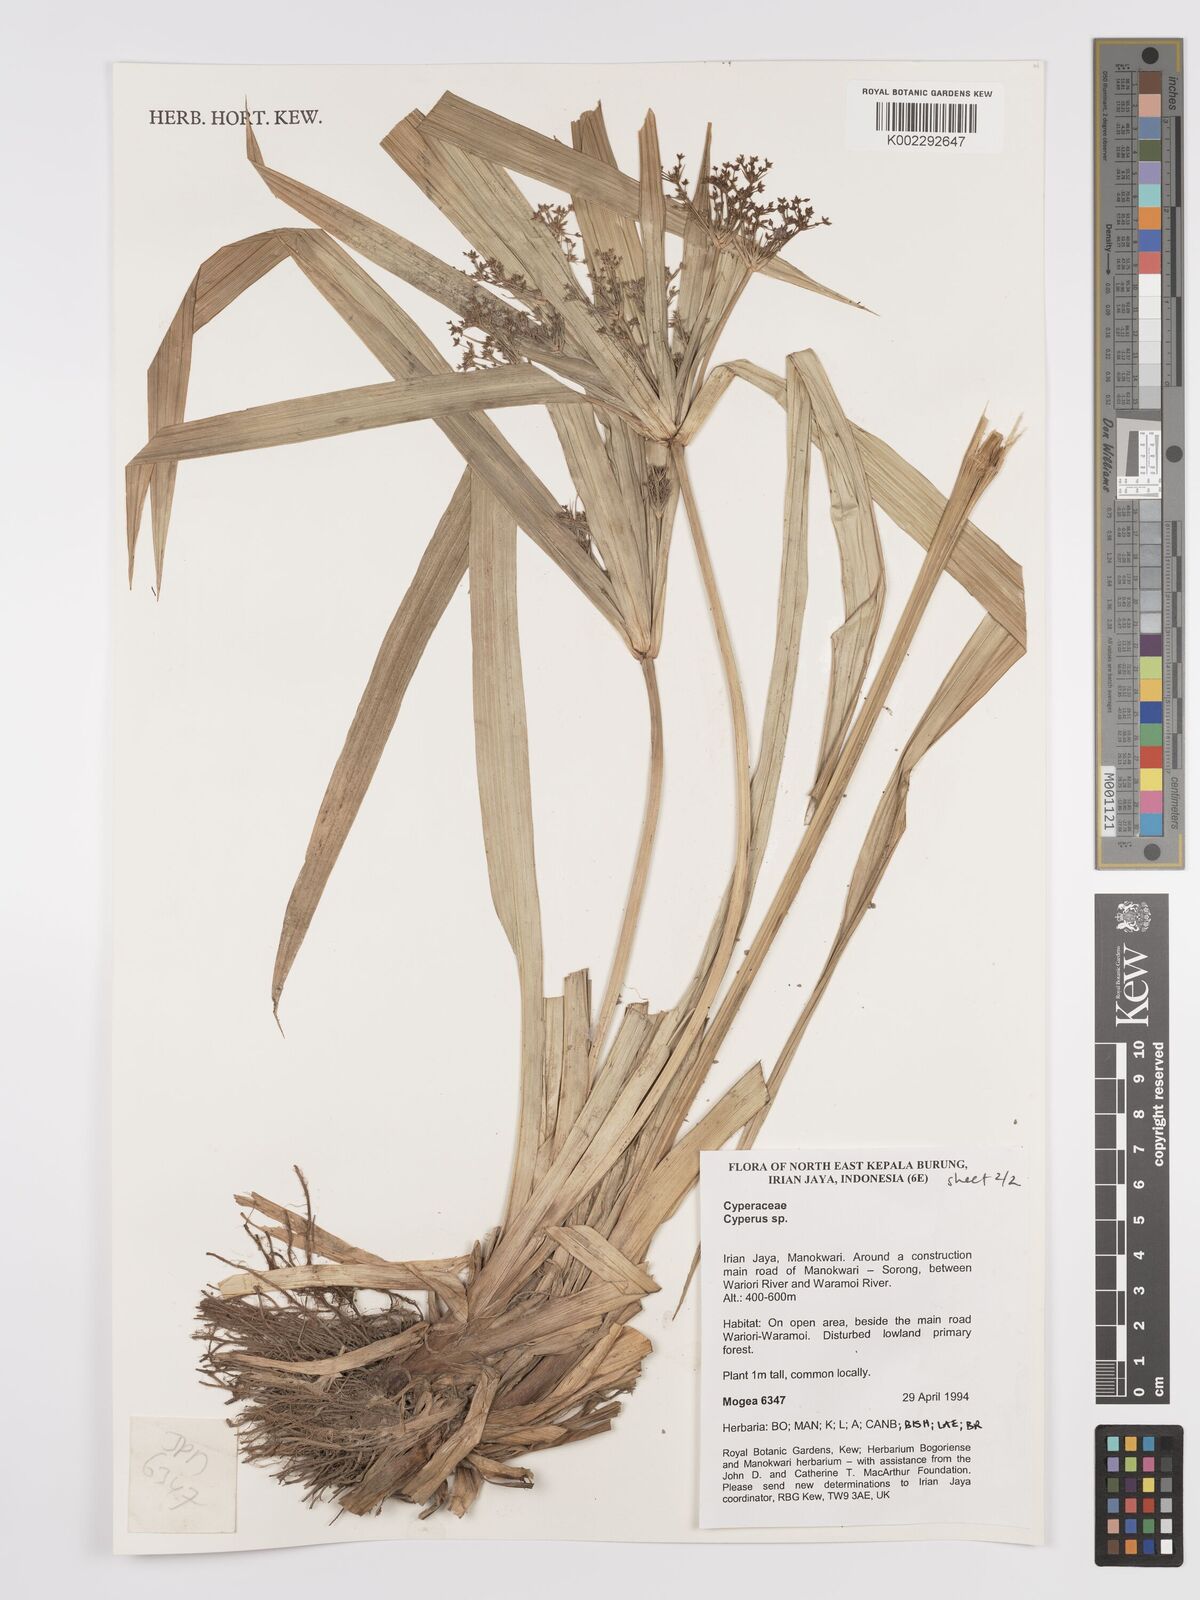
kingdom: Plantae
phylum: Tracheophyta
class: Liliopsida
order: Poales
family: Cyperaceae
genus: Cyperus
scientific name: Cyperus
